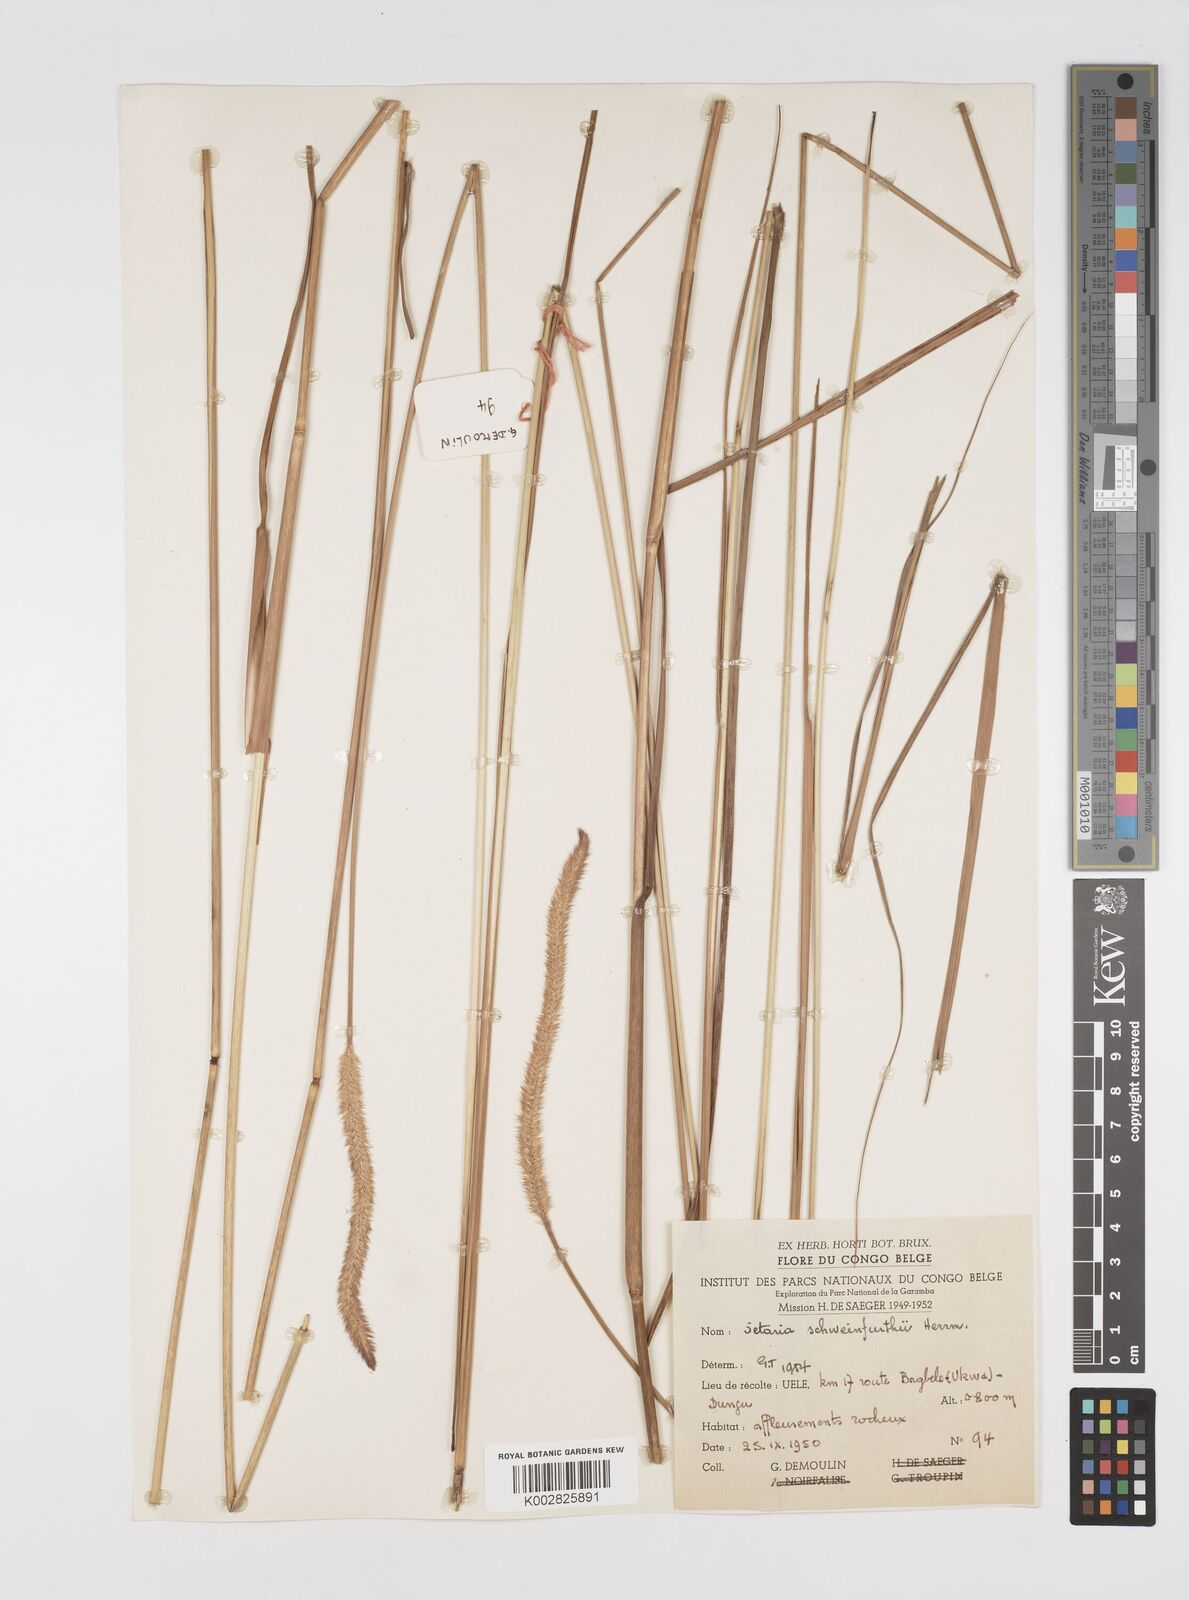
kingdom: Plantae
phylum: Tracheophyta
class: Liliopsida
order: Poales
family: Poaceae
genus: Setaria
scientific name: Setaria restioidea
